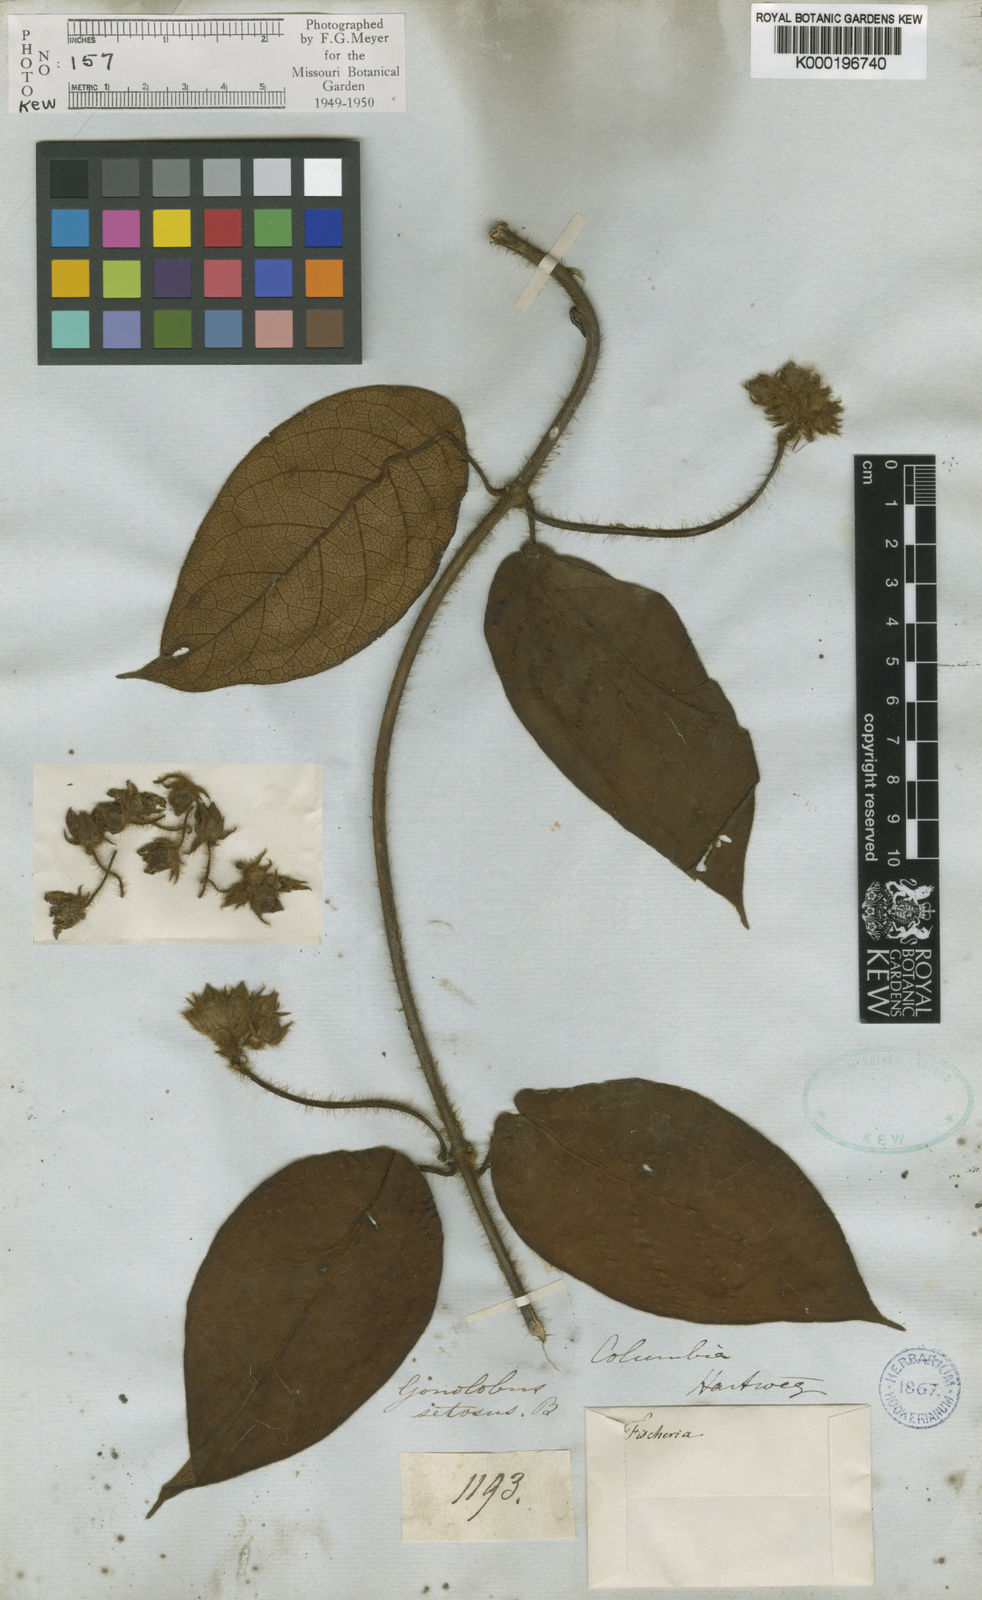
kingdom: Plantae
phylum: Tracheophyta
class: Magnoliopsida
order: Gentianales
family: Apocynaceae
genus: Fischeria
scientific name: Fischeria stellata
